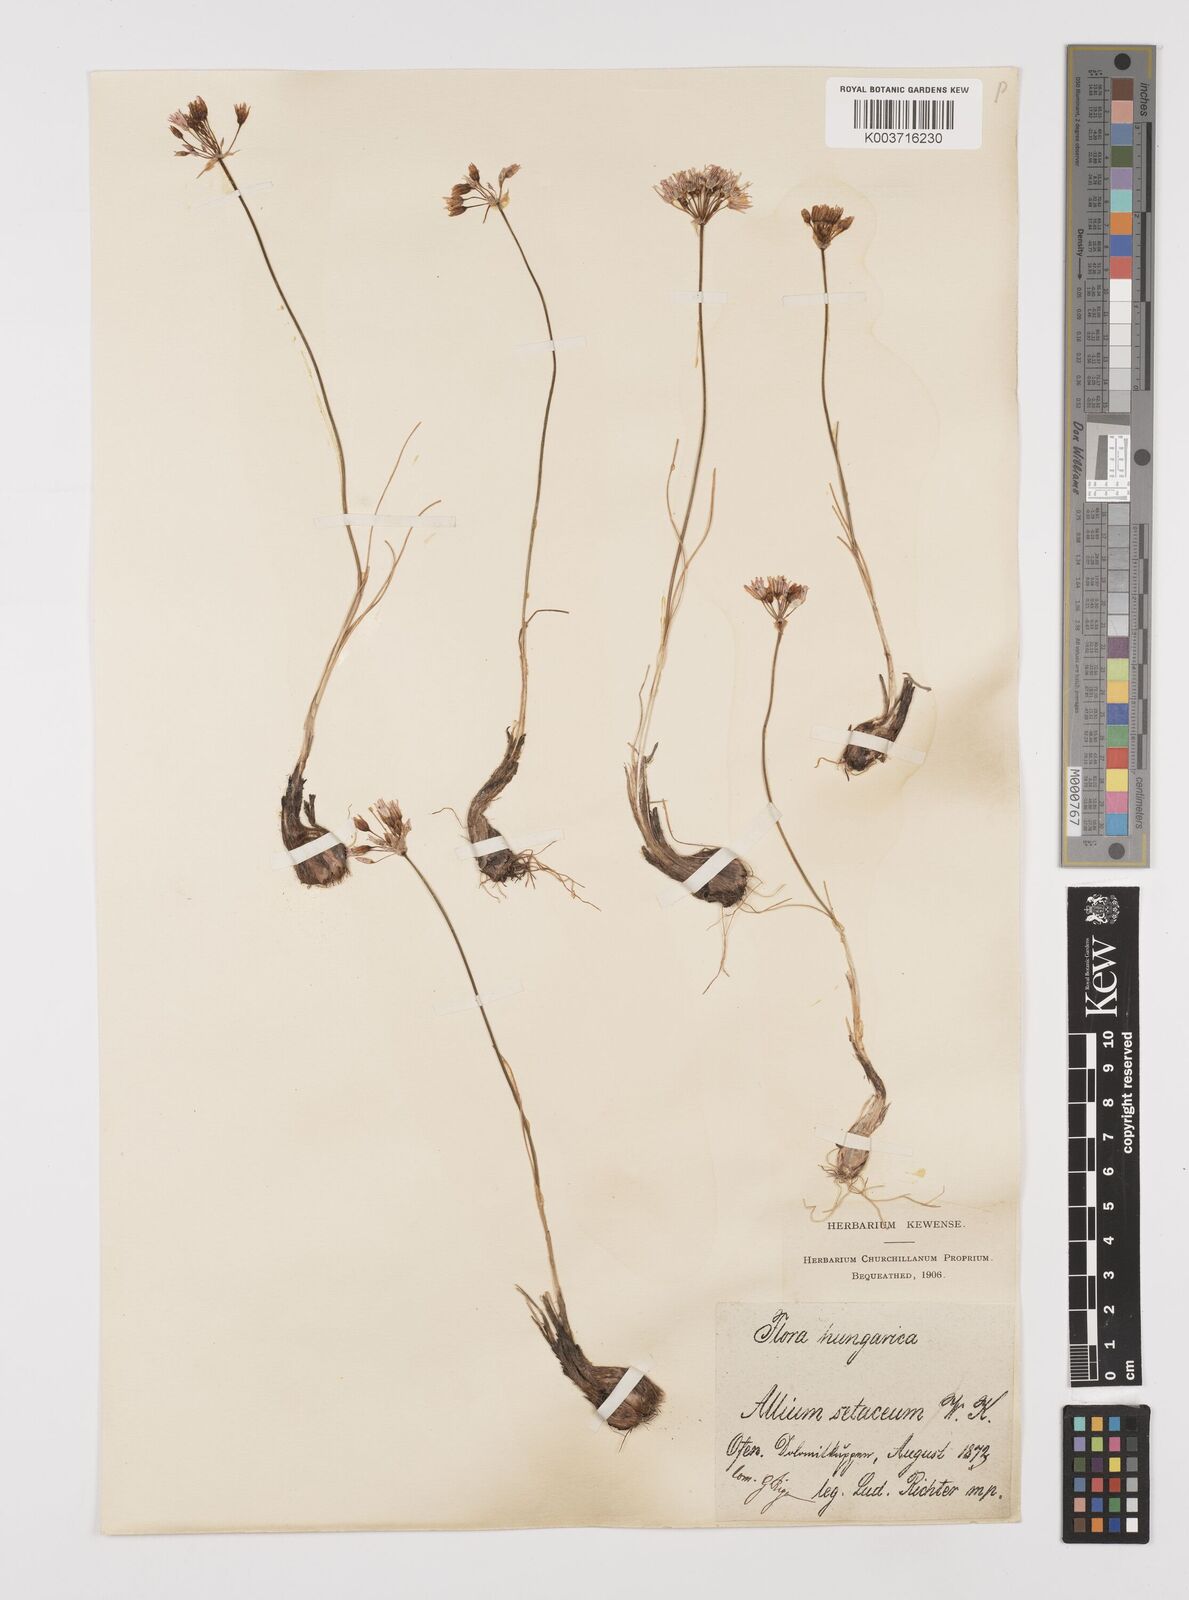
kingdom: Plantae
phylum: Tracheophyta
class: Liliopsida
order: Asparagales
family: Amaryllidaceae
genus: Allium
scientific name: Allium moschatum
